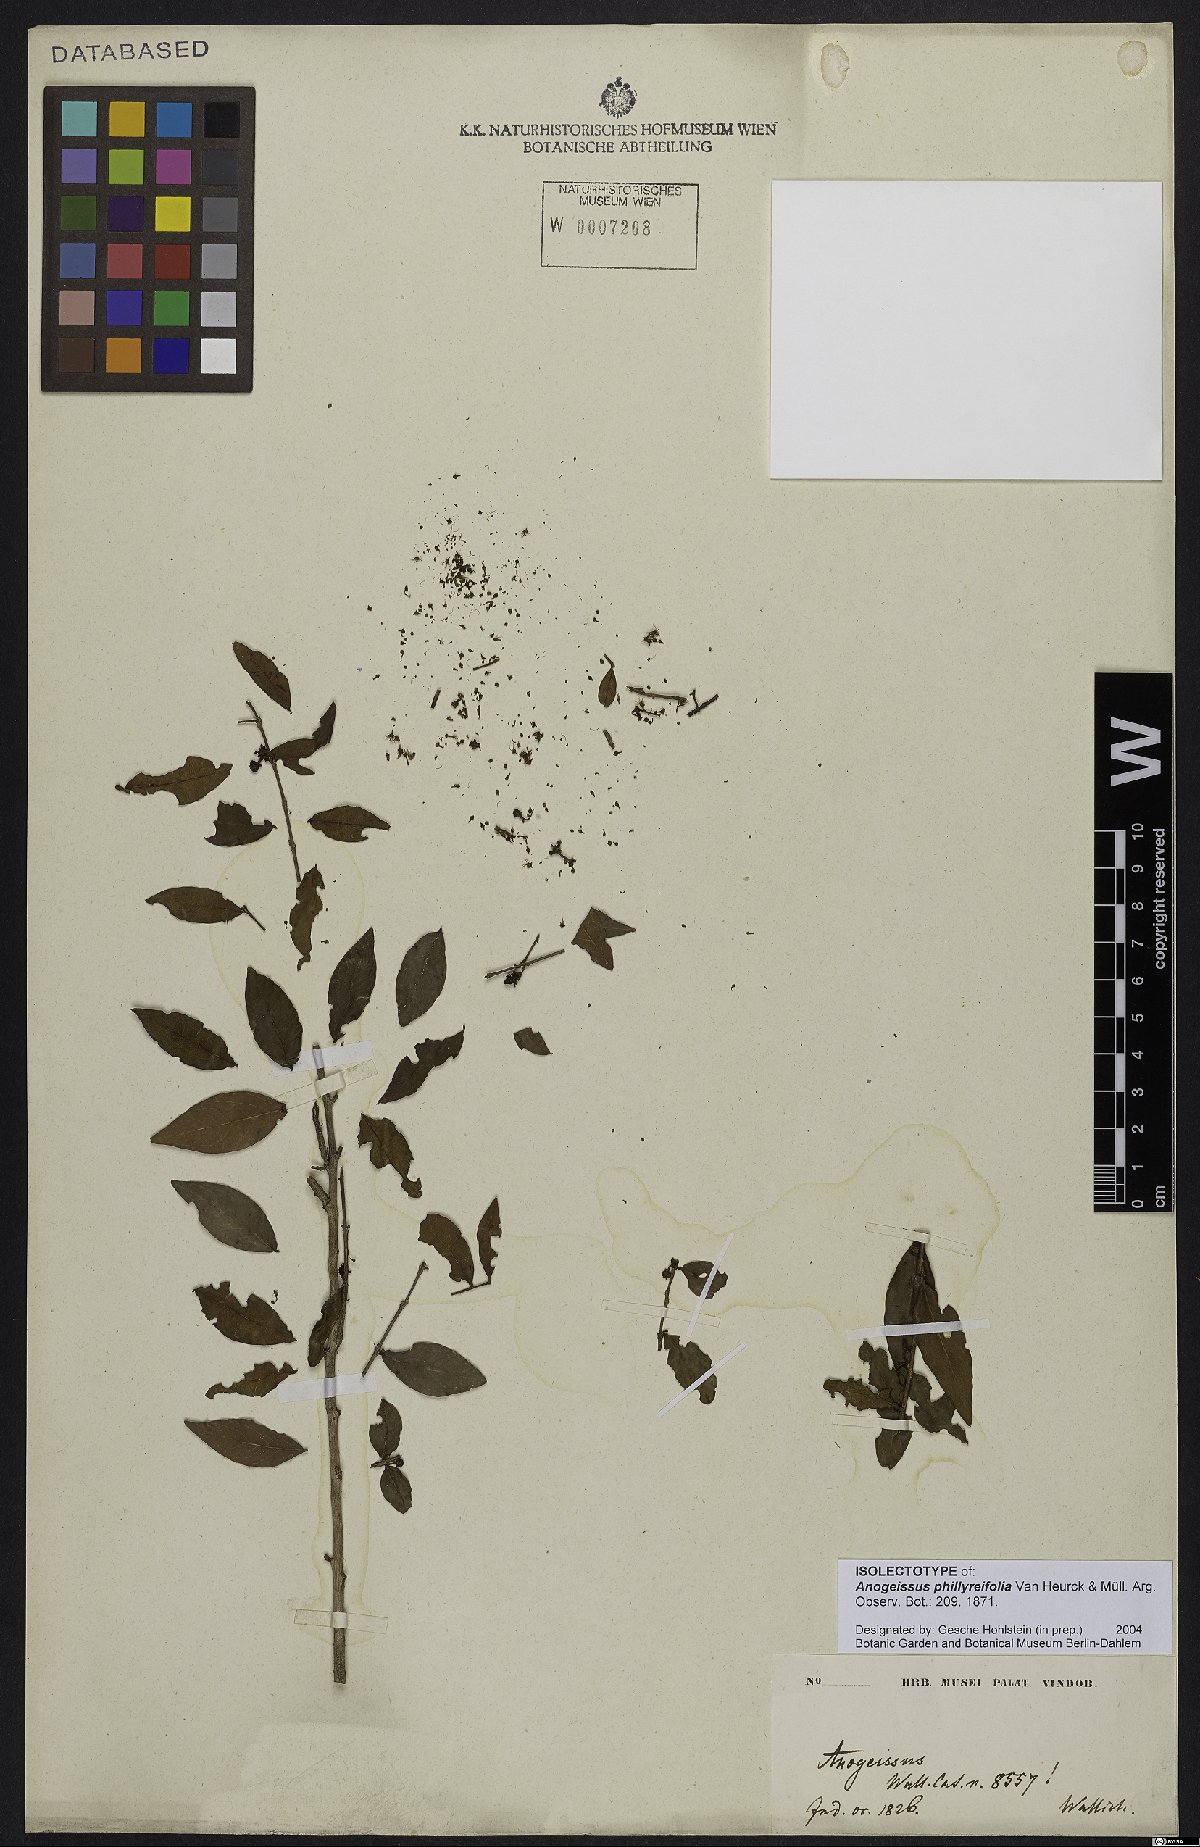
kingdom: Plantae
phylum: Tracheophyta
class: Magnoliopsida
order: Myrtales
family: Combretaceae
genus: Terminalia
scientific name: Terminalia phillyreifolia
